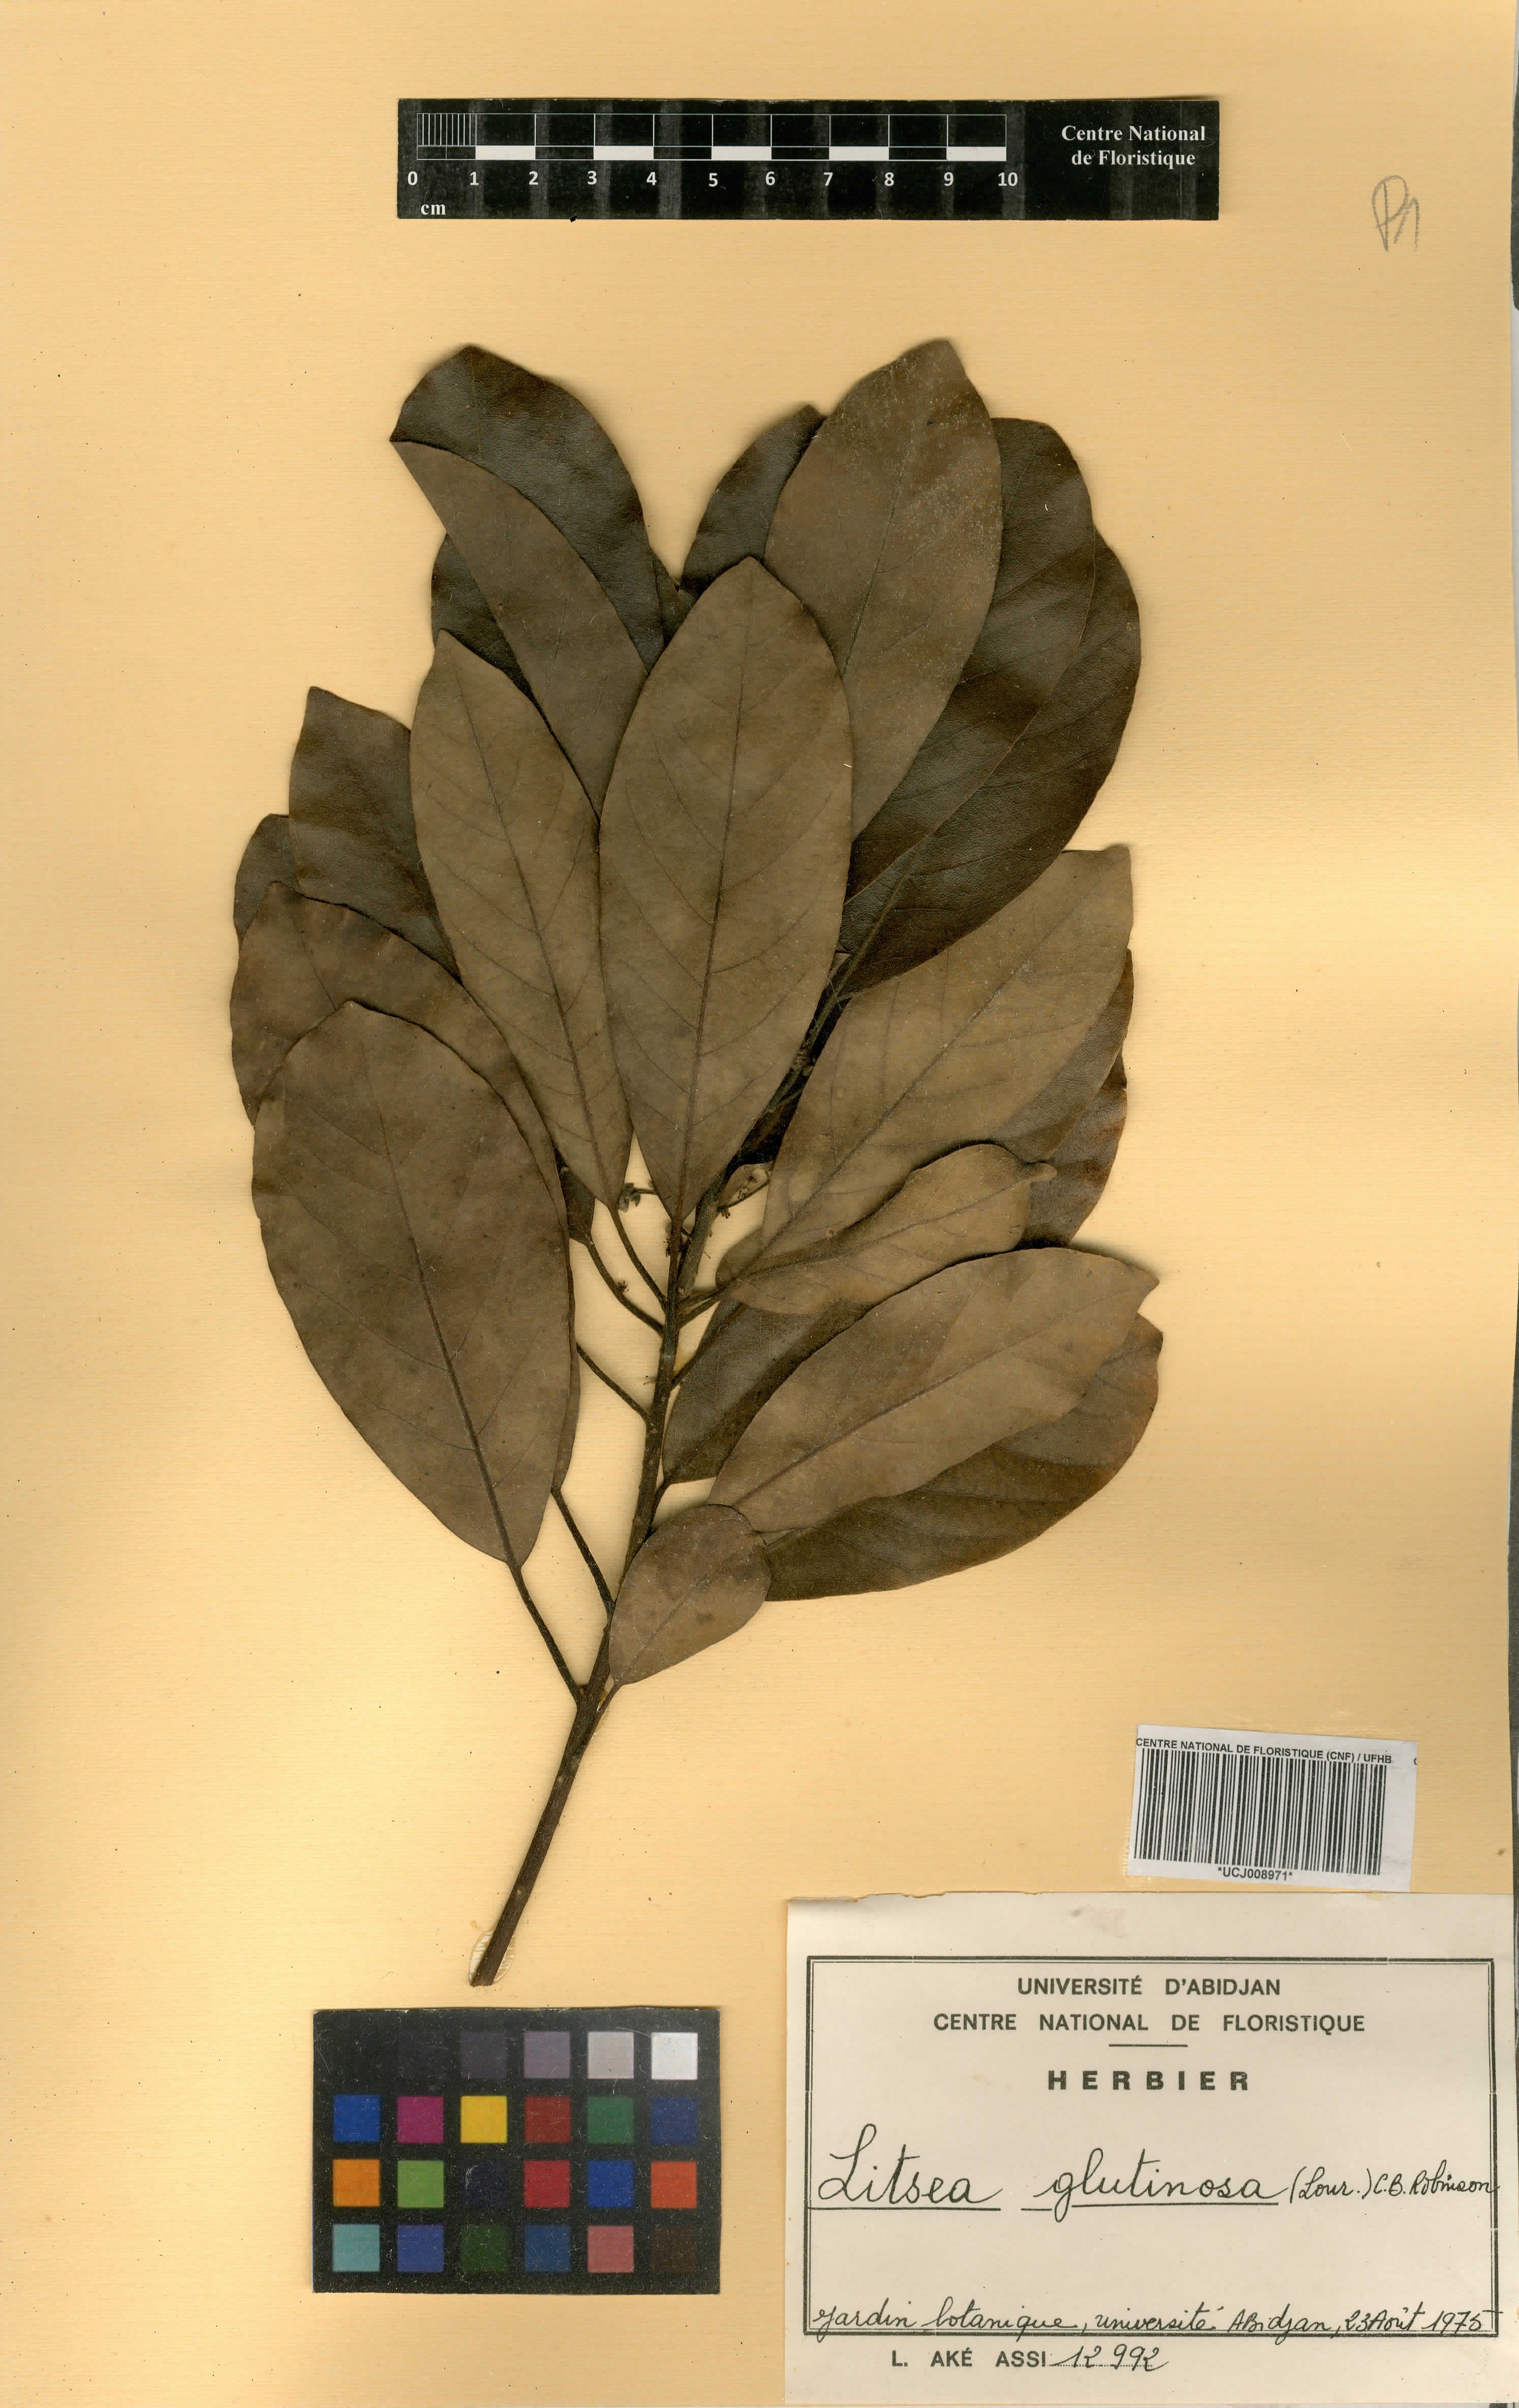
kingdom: Plantae
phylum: Tracheophyta
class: Magnoliopsida
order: Laurales
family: Lauraceae
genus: Litsea
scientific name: Litsea glutinosa
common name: Indian-laurel
